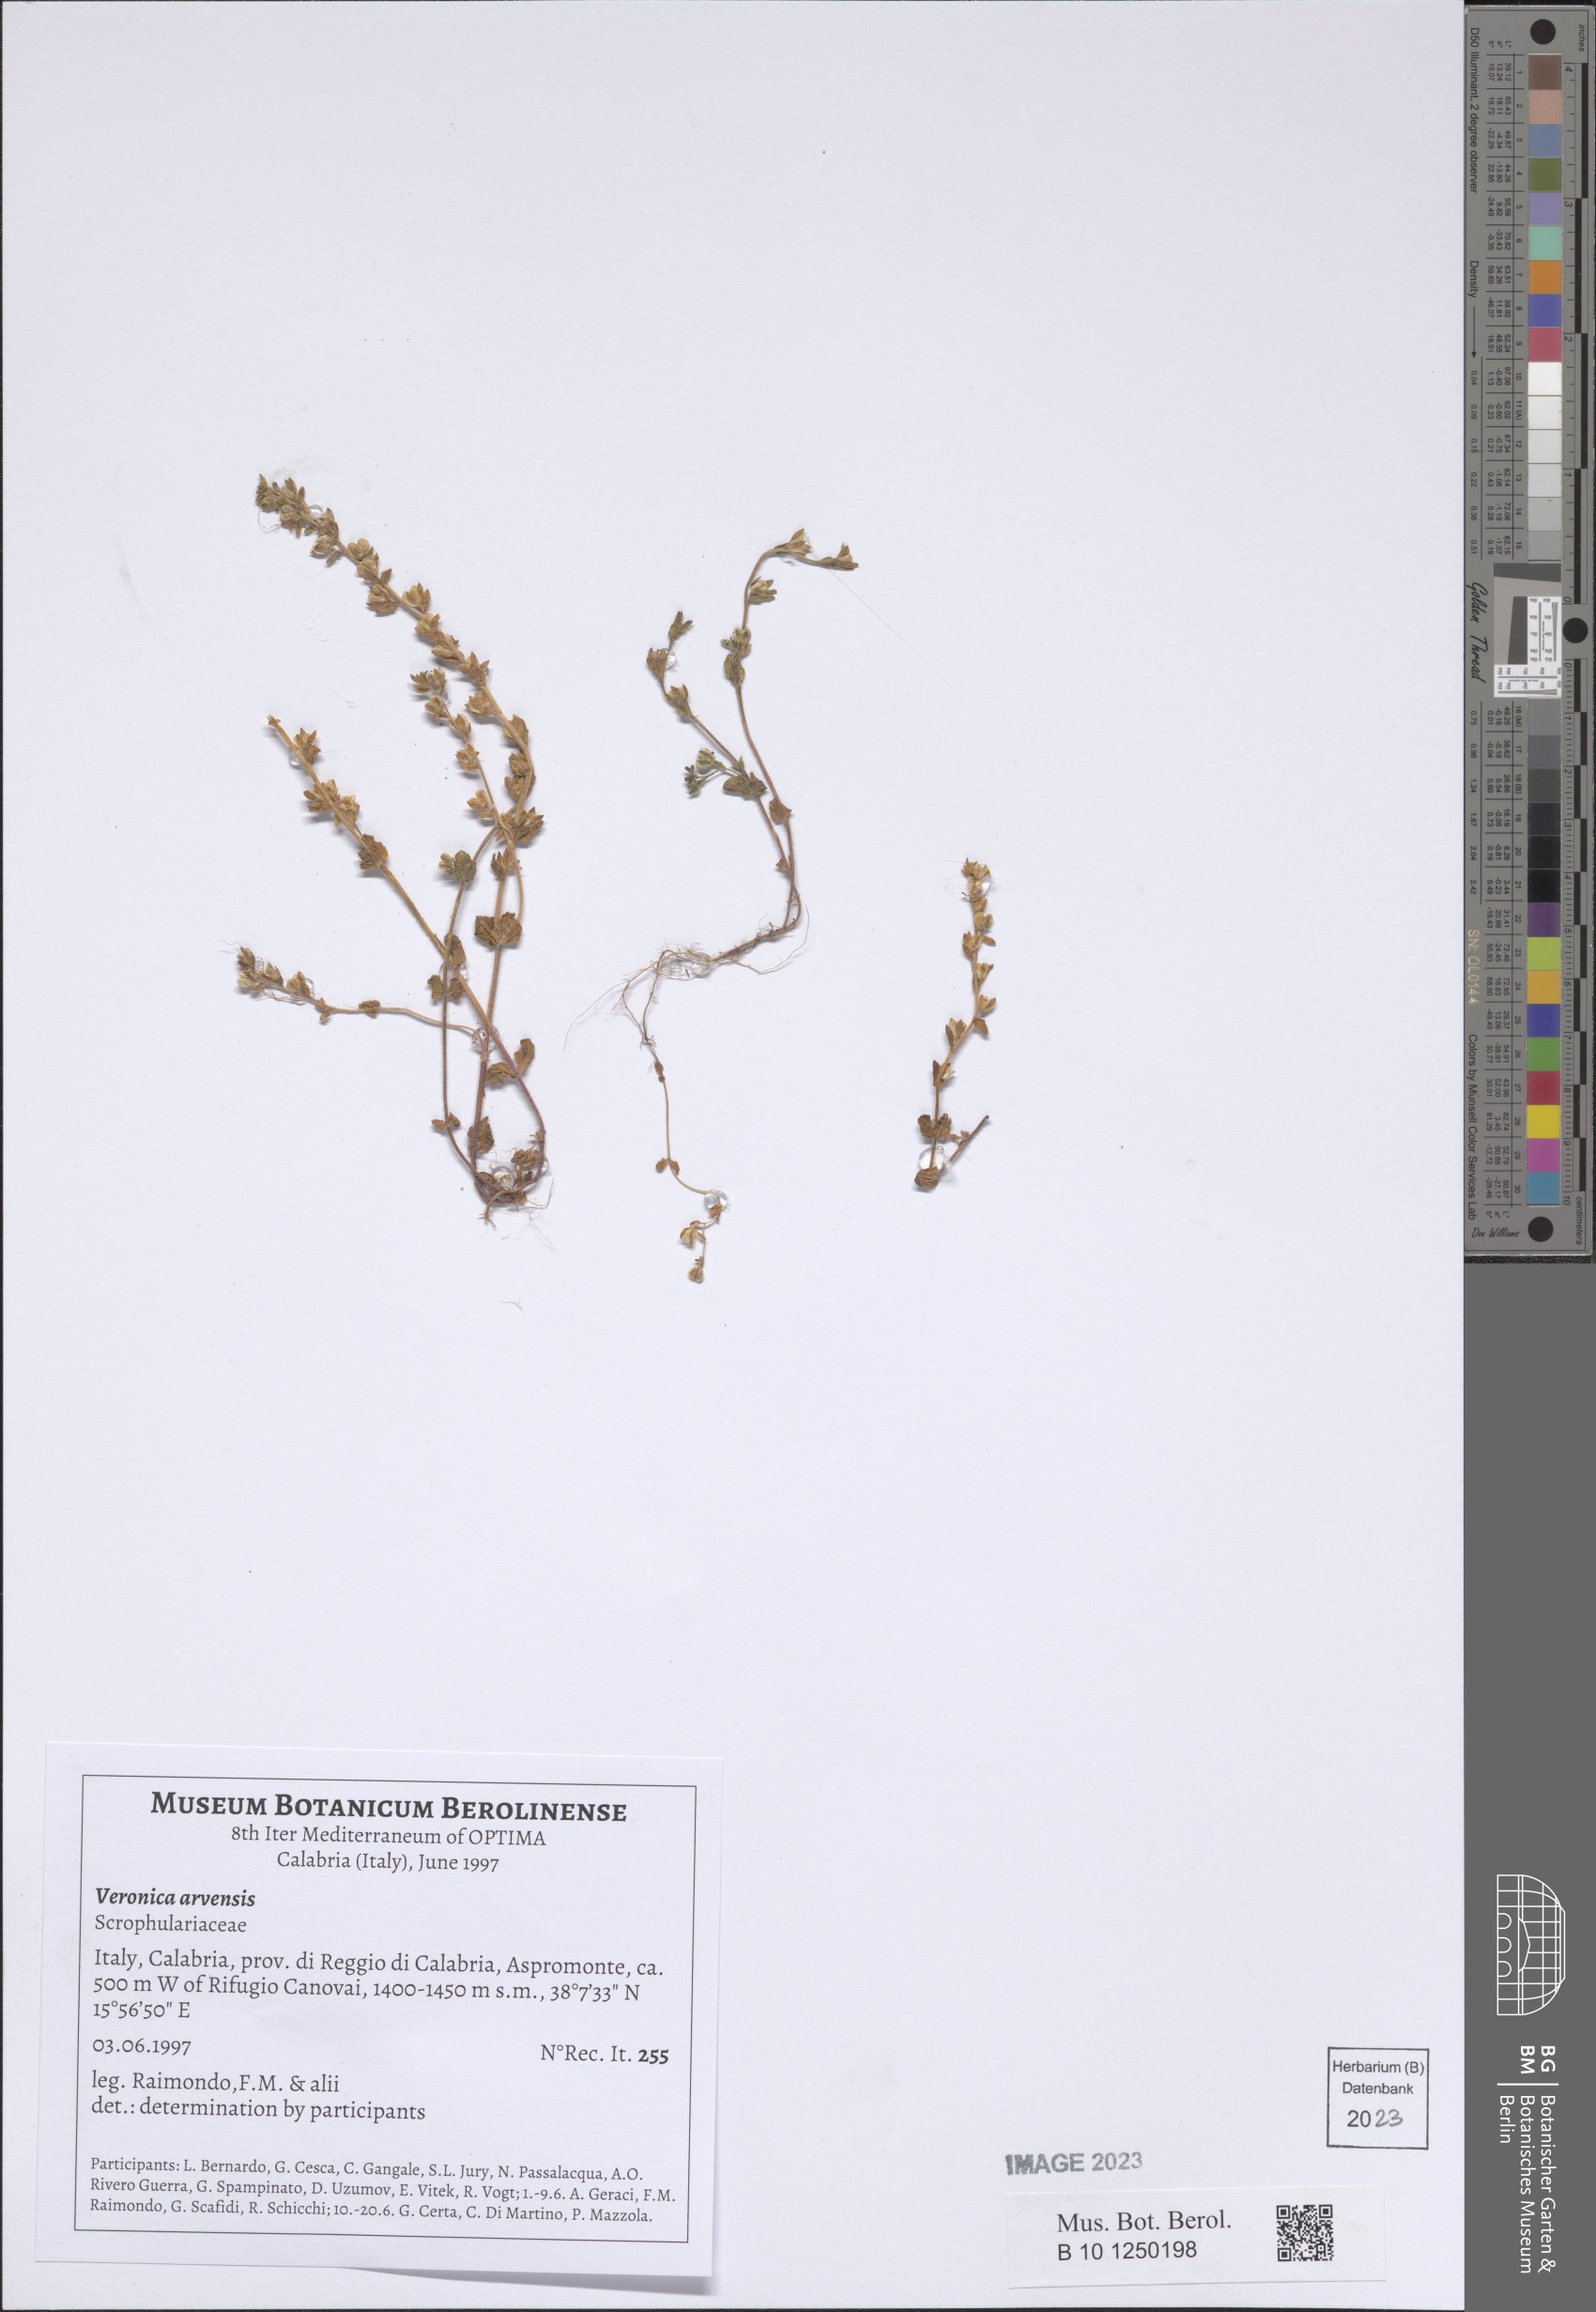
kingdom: Plantae
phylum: Tracheophyta
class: Magnoliopsida
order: Lamiales
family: Plantaginaceae
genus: Veronica
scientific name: Veronica arvensis
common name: Corn speedwell
